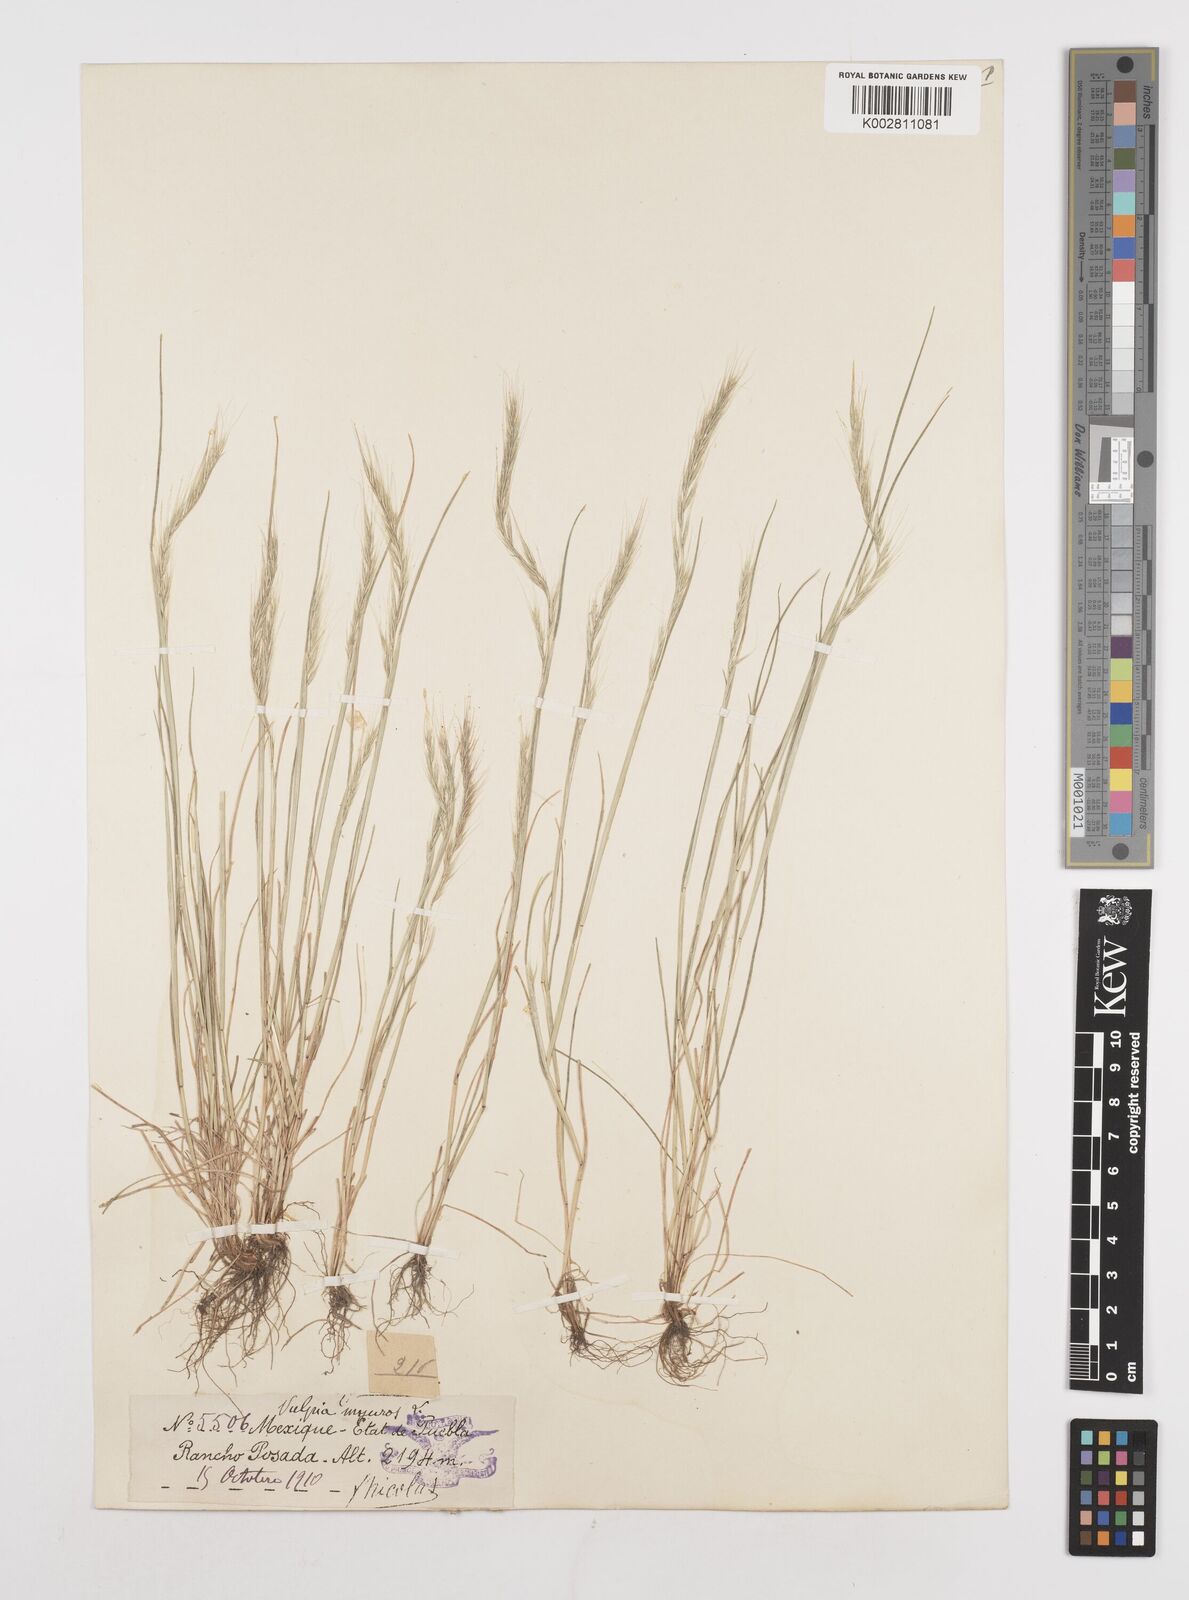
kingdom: Plantae
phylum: Tracheophyta
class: Liliopsida
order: Poales
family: Poaceae
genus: Festuca
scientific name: Festuca myuros
